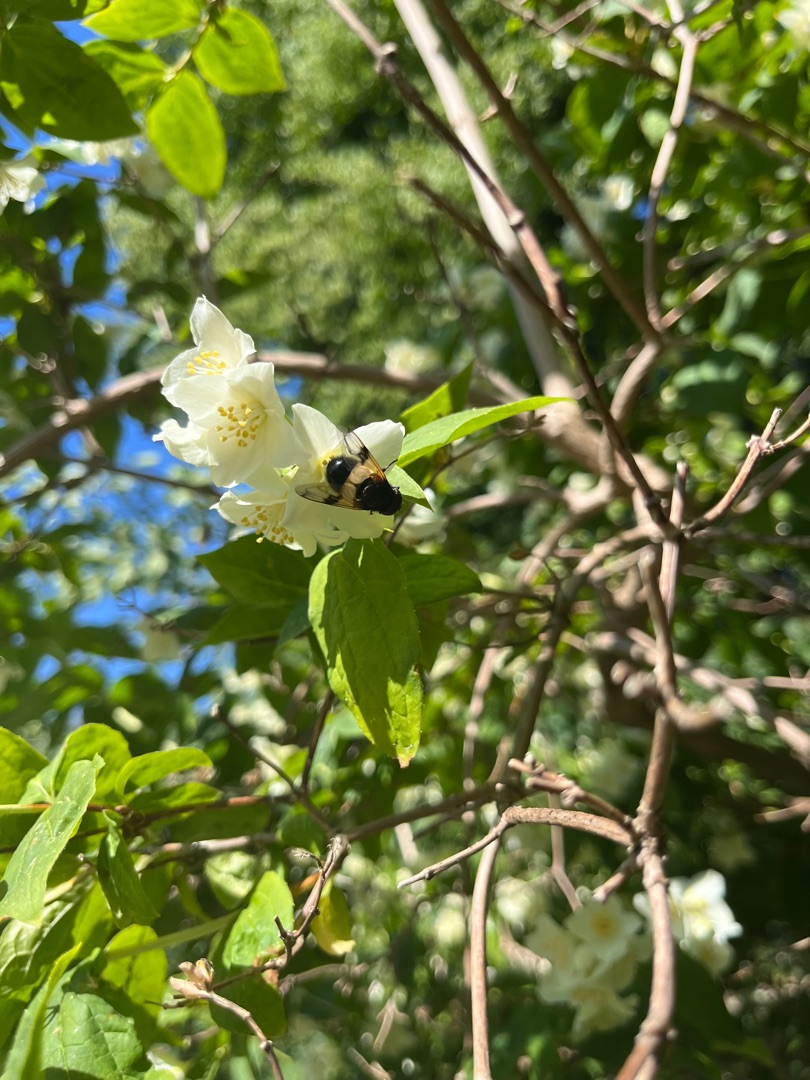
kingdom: Animalia
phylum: Arthropoda
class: Insecta
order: Diptera
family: Syrphidae
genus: Volucella
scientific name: Volucella pellucens
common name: Hvidbåndet humlesvirreflue
